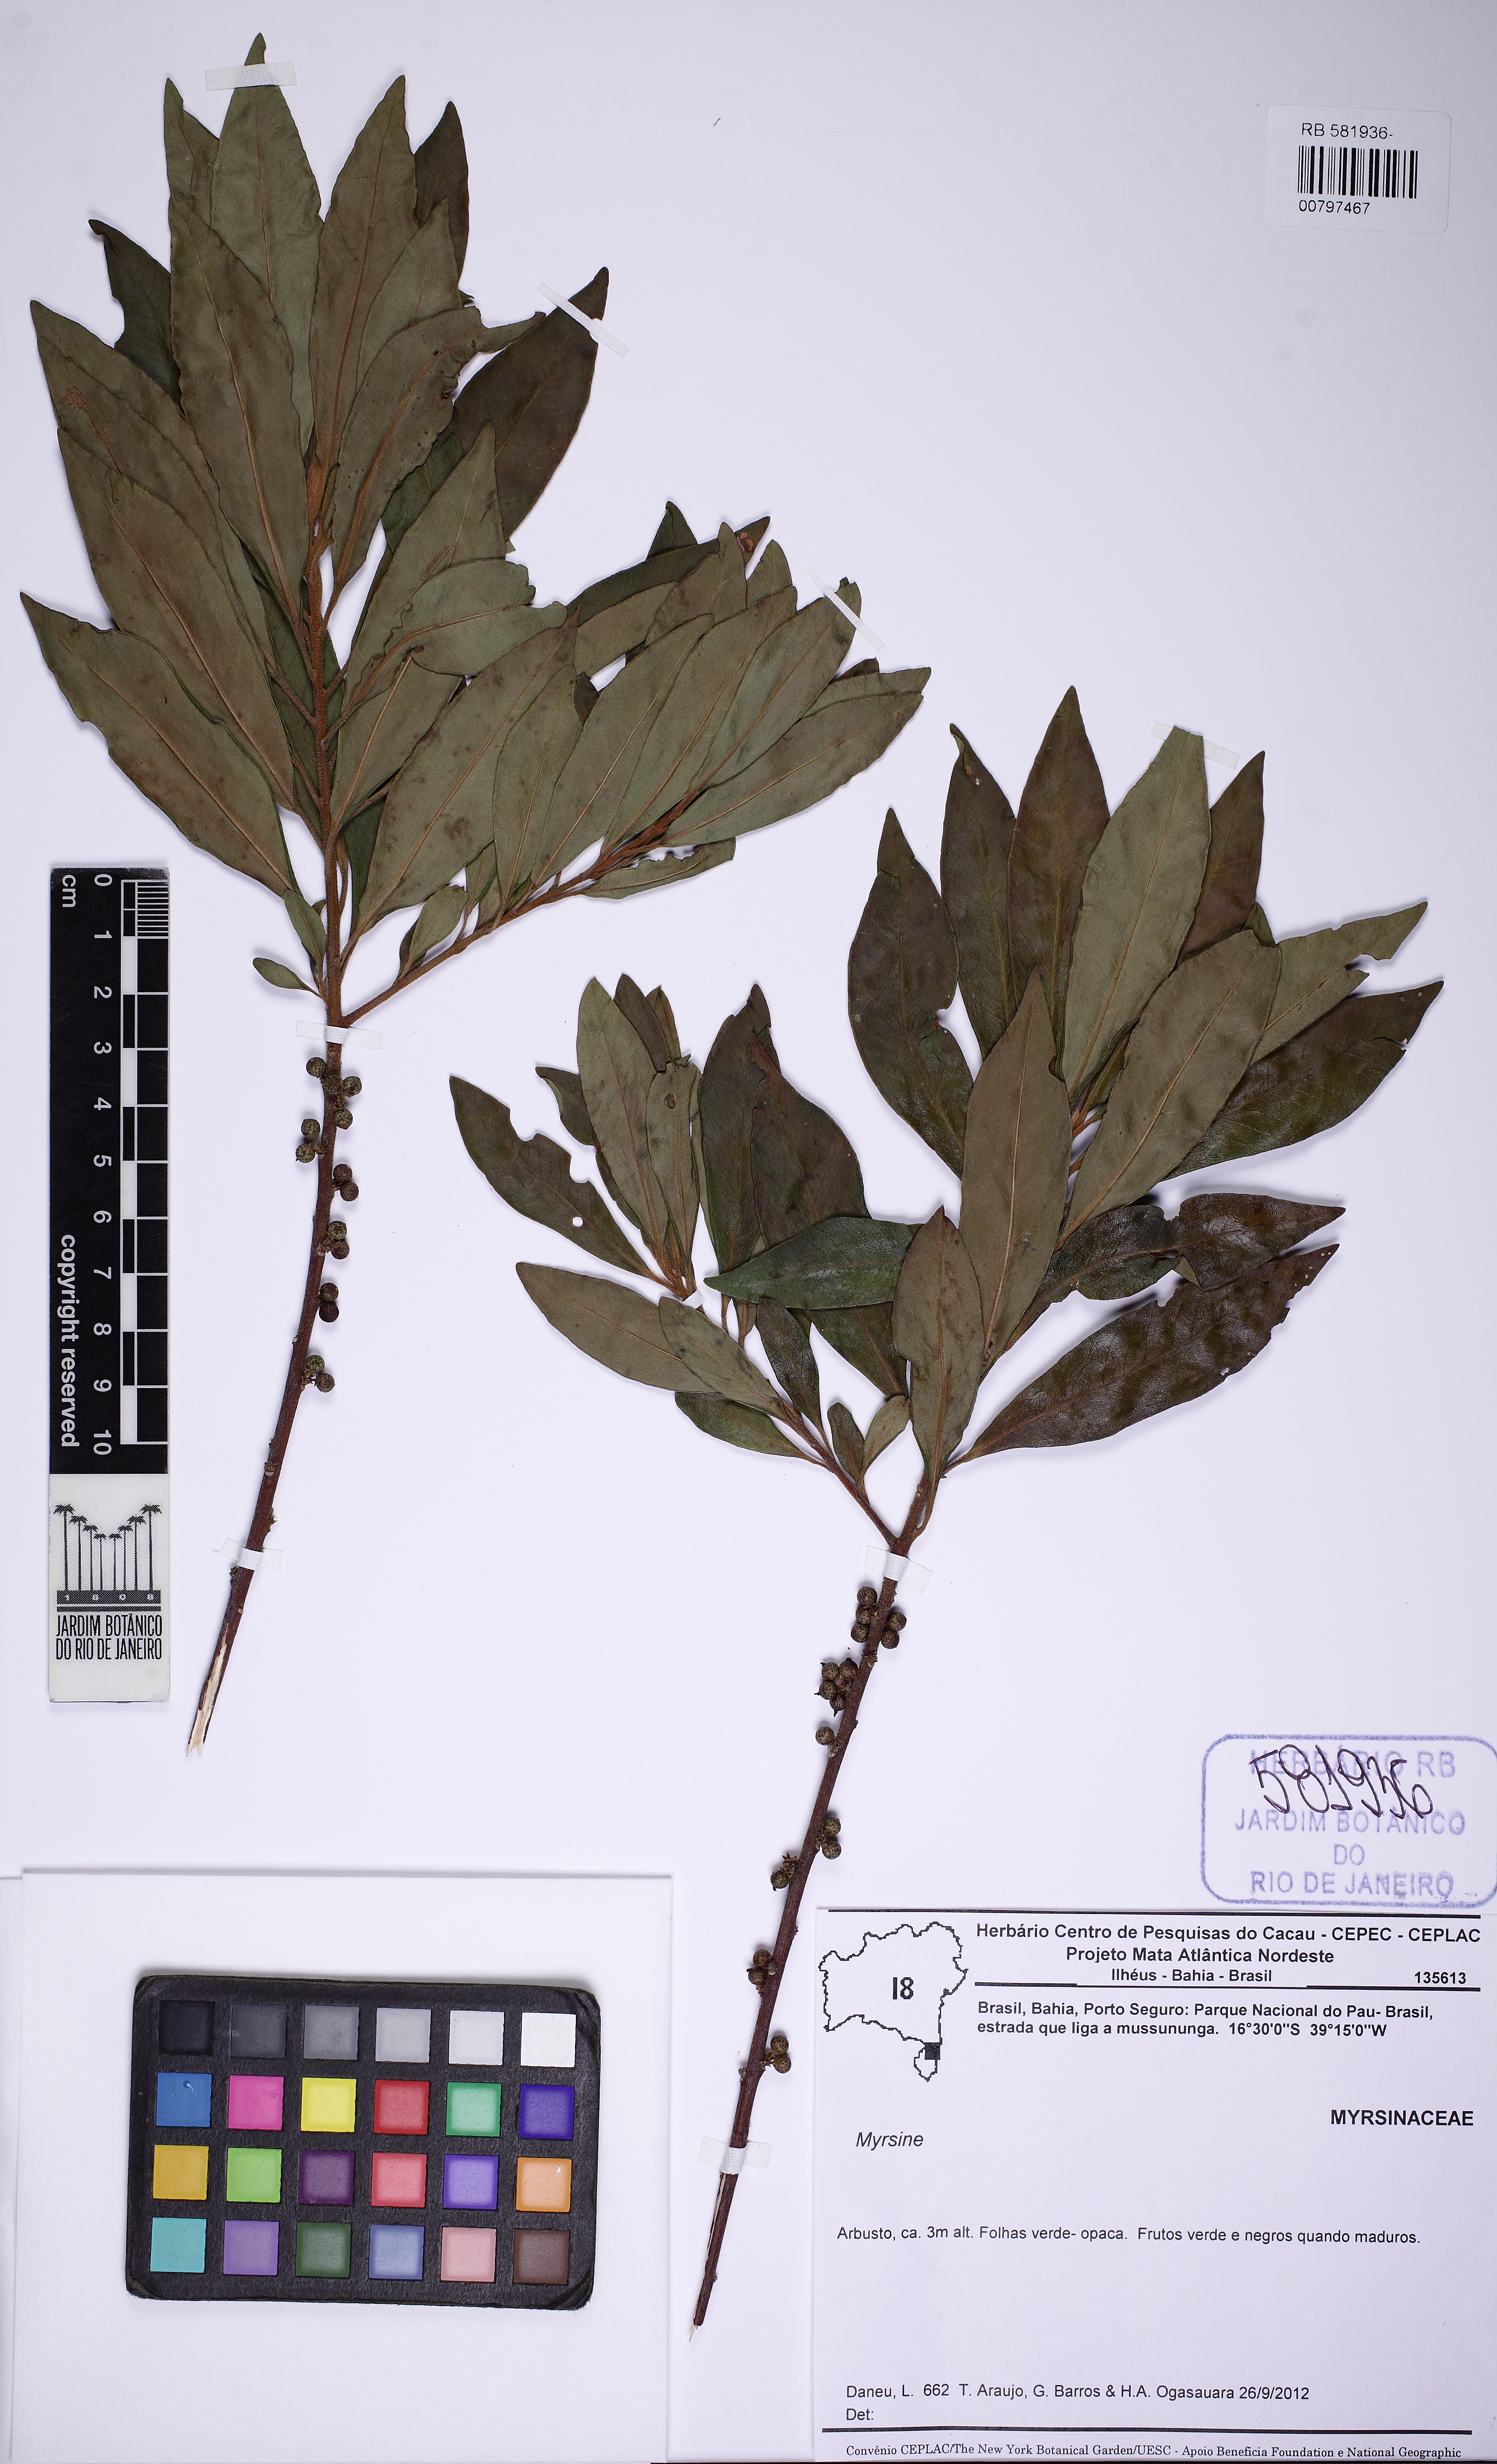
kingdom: Plantae
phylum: Tracheophyta
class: Magnoliopsida
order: Ericales
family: Primulaceae
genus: Myrsine
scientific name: Myrsine coriacea
